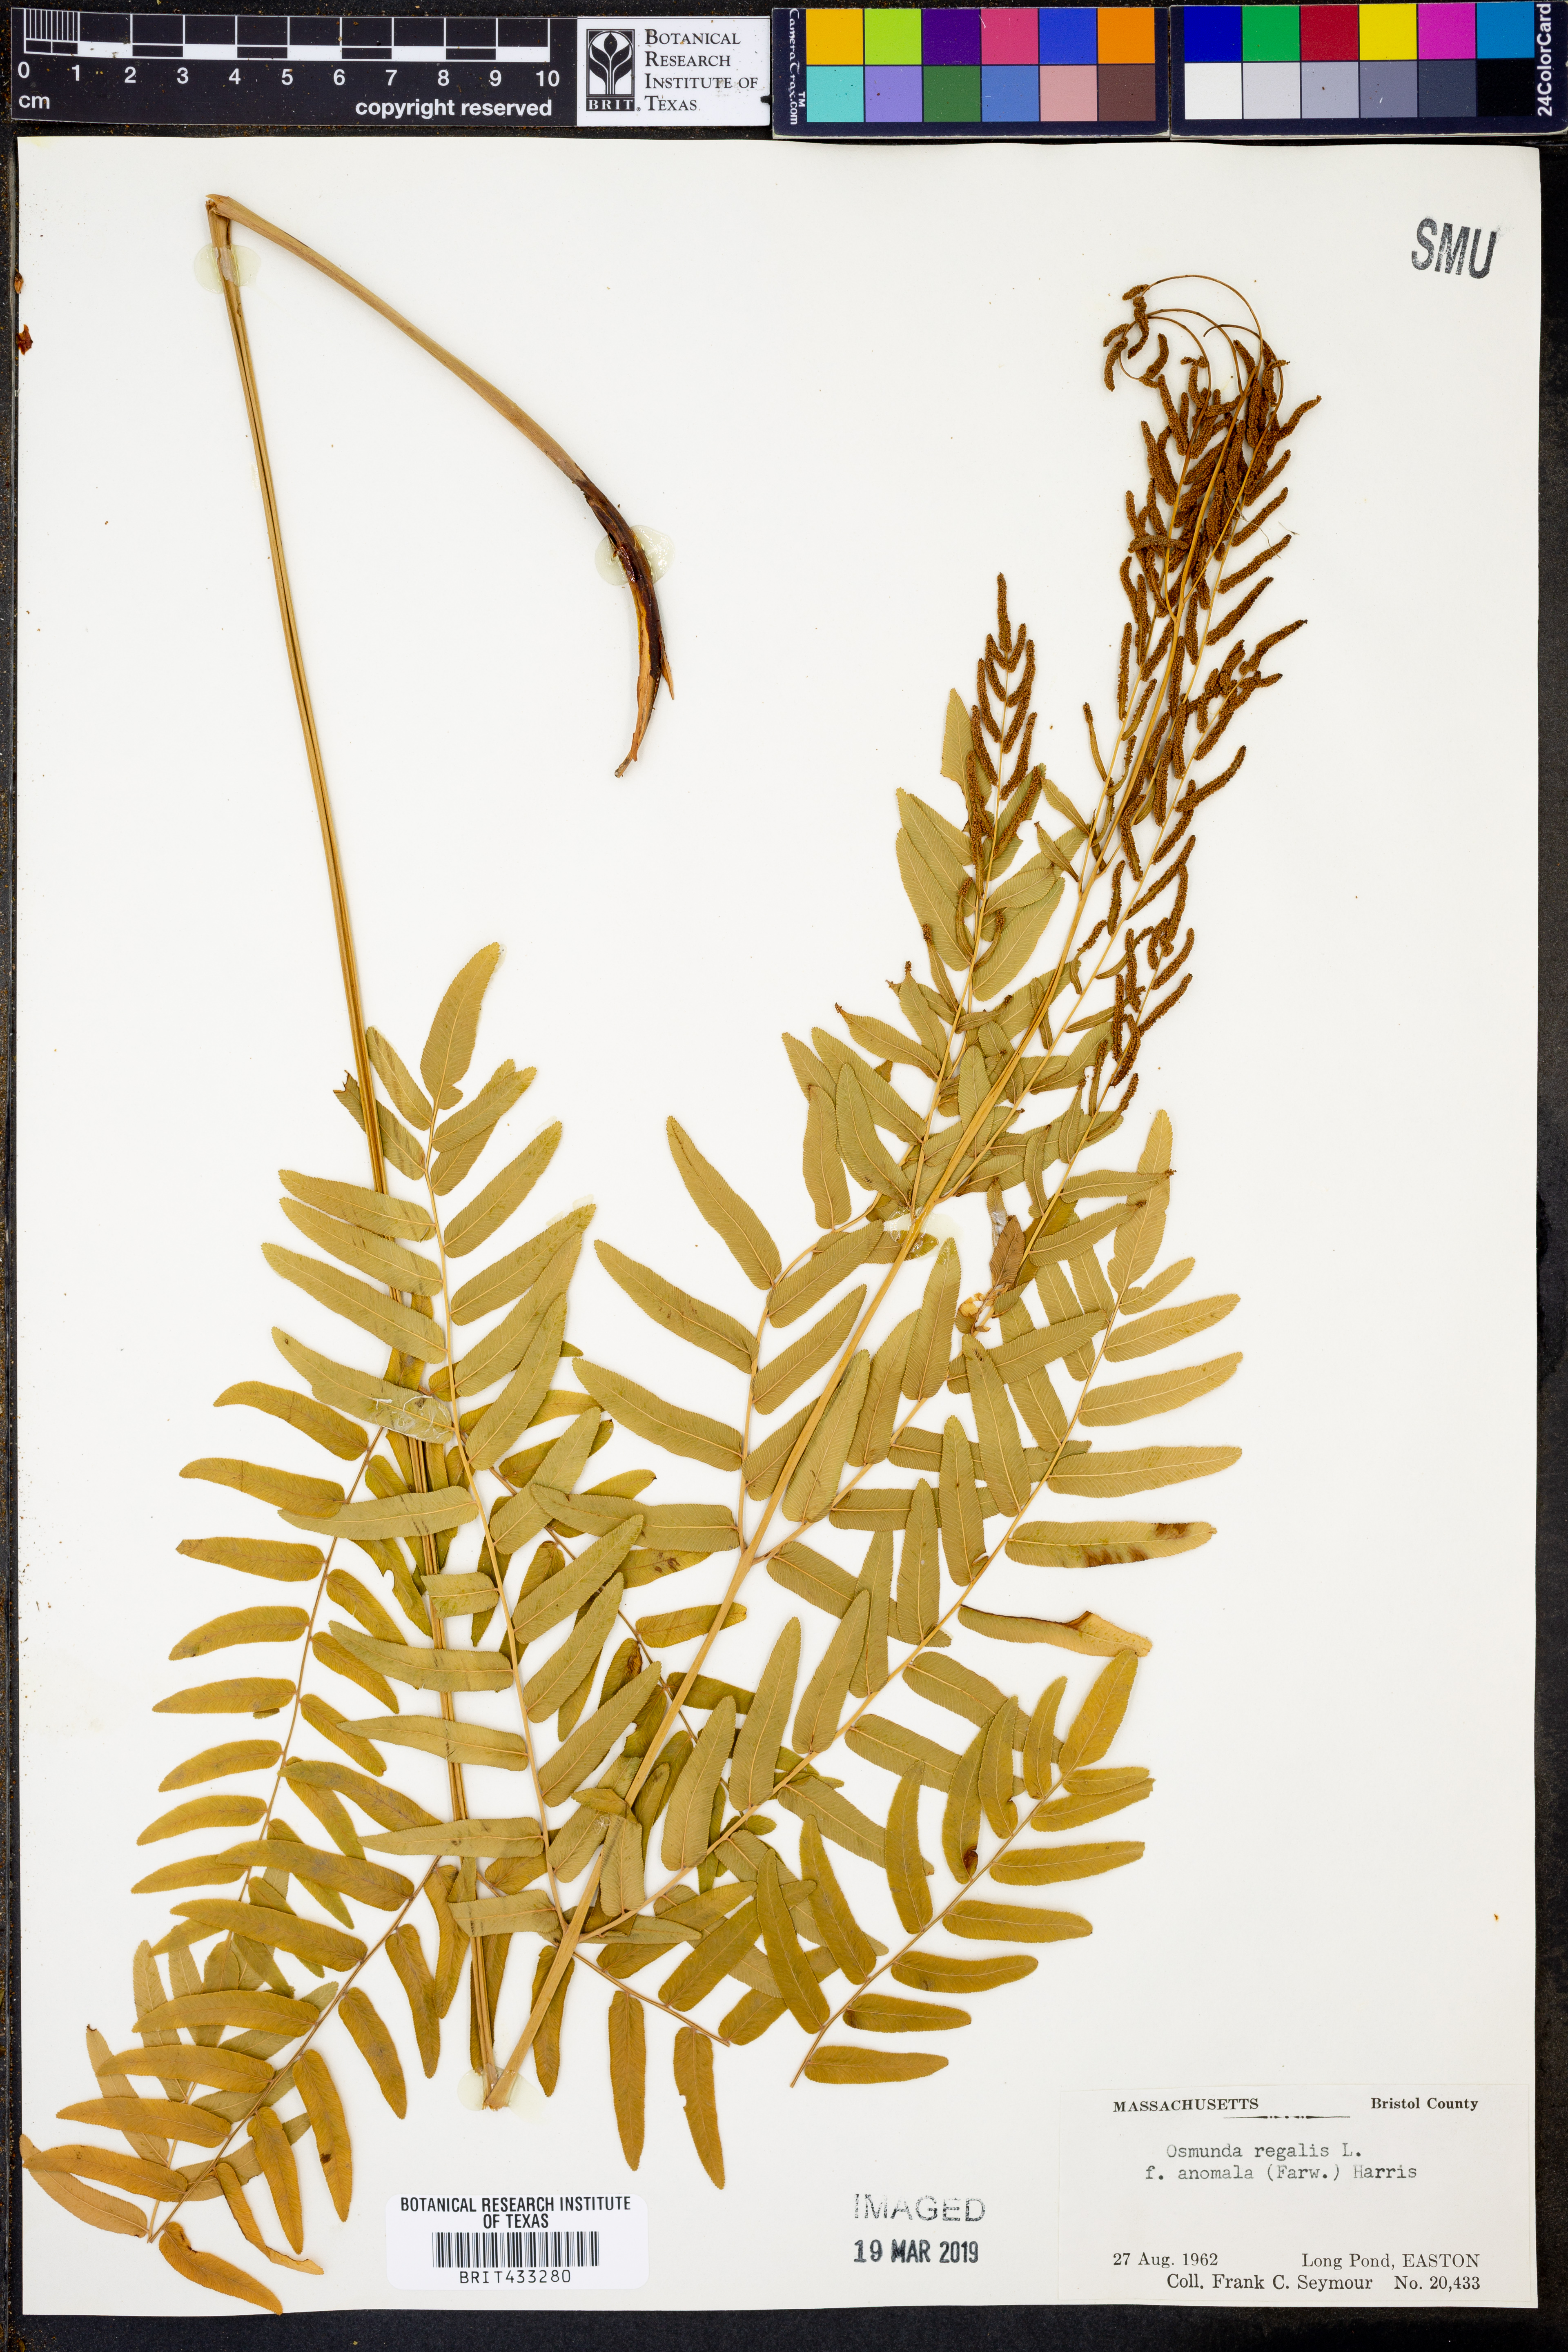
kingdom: Plantae
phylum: Tracheophyta
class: Polypodiopsida
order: Osmundales
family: Osmundaceae
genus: Osmunda
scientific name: Osmunda spectabilis
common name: American royal fern
